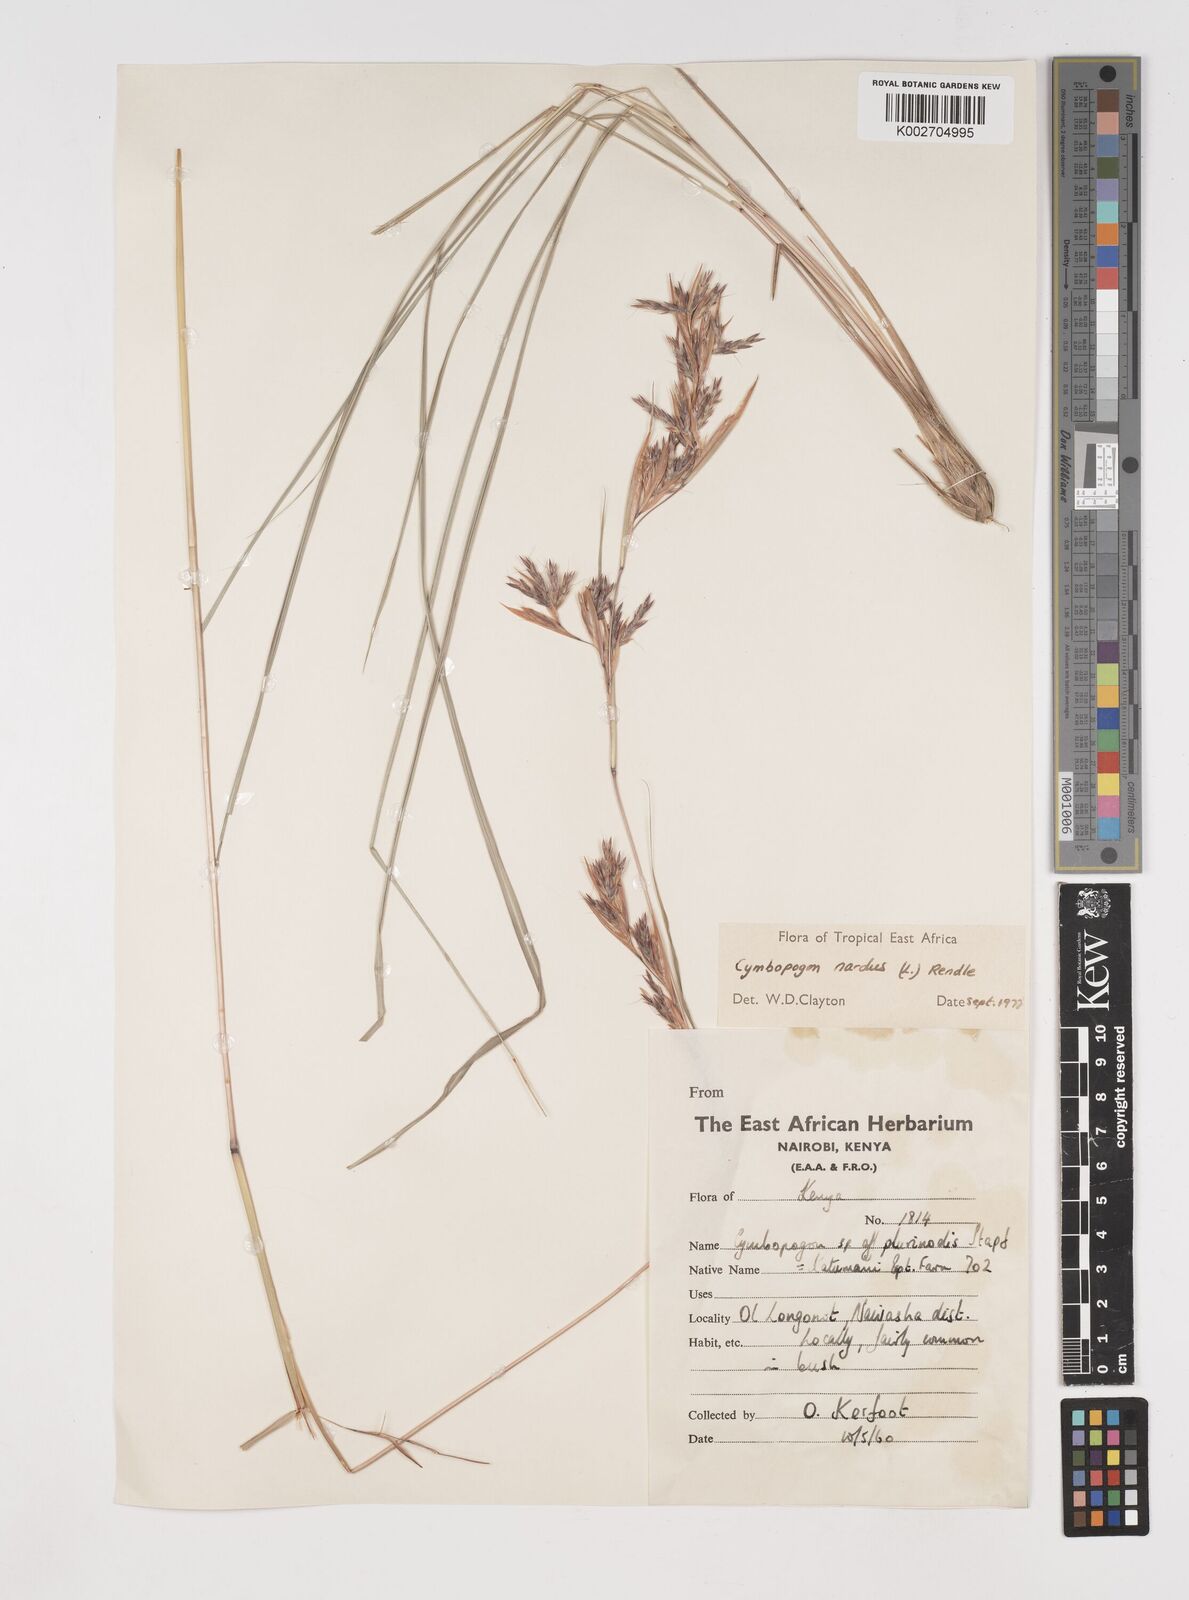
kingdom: Plantae
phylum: Tracheophyta
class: Liliopsida
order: Poales
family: Poaceae
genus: Cymbopogon
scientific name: Cymbopogon nardus
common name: Giant turpentine grass
